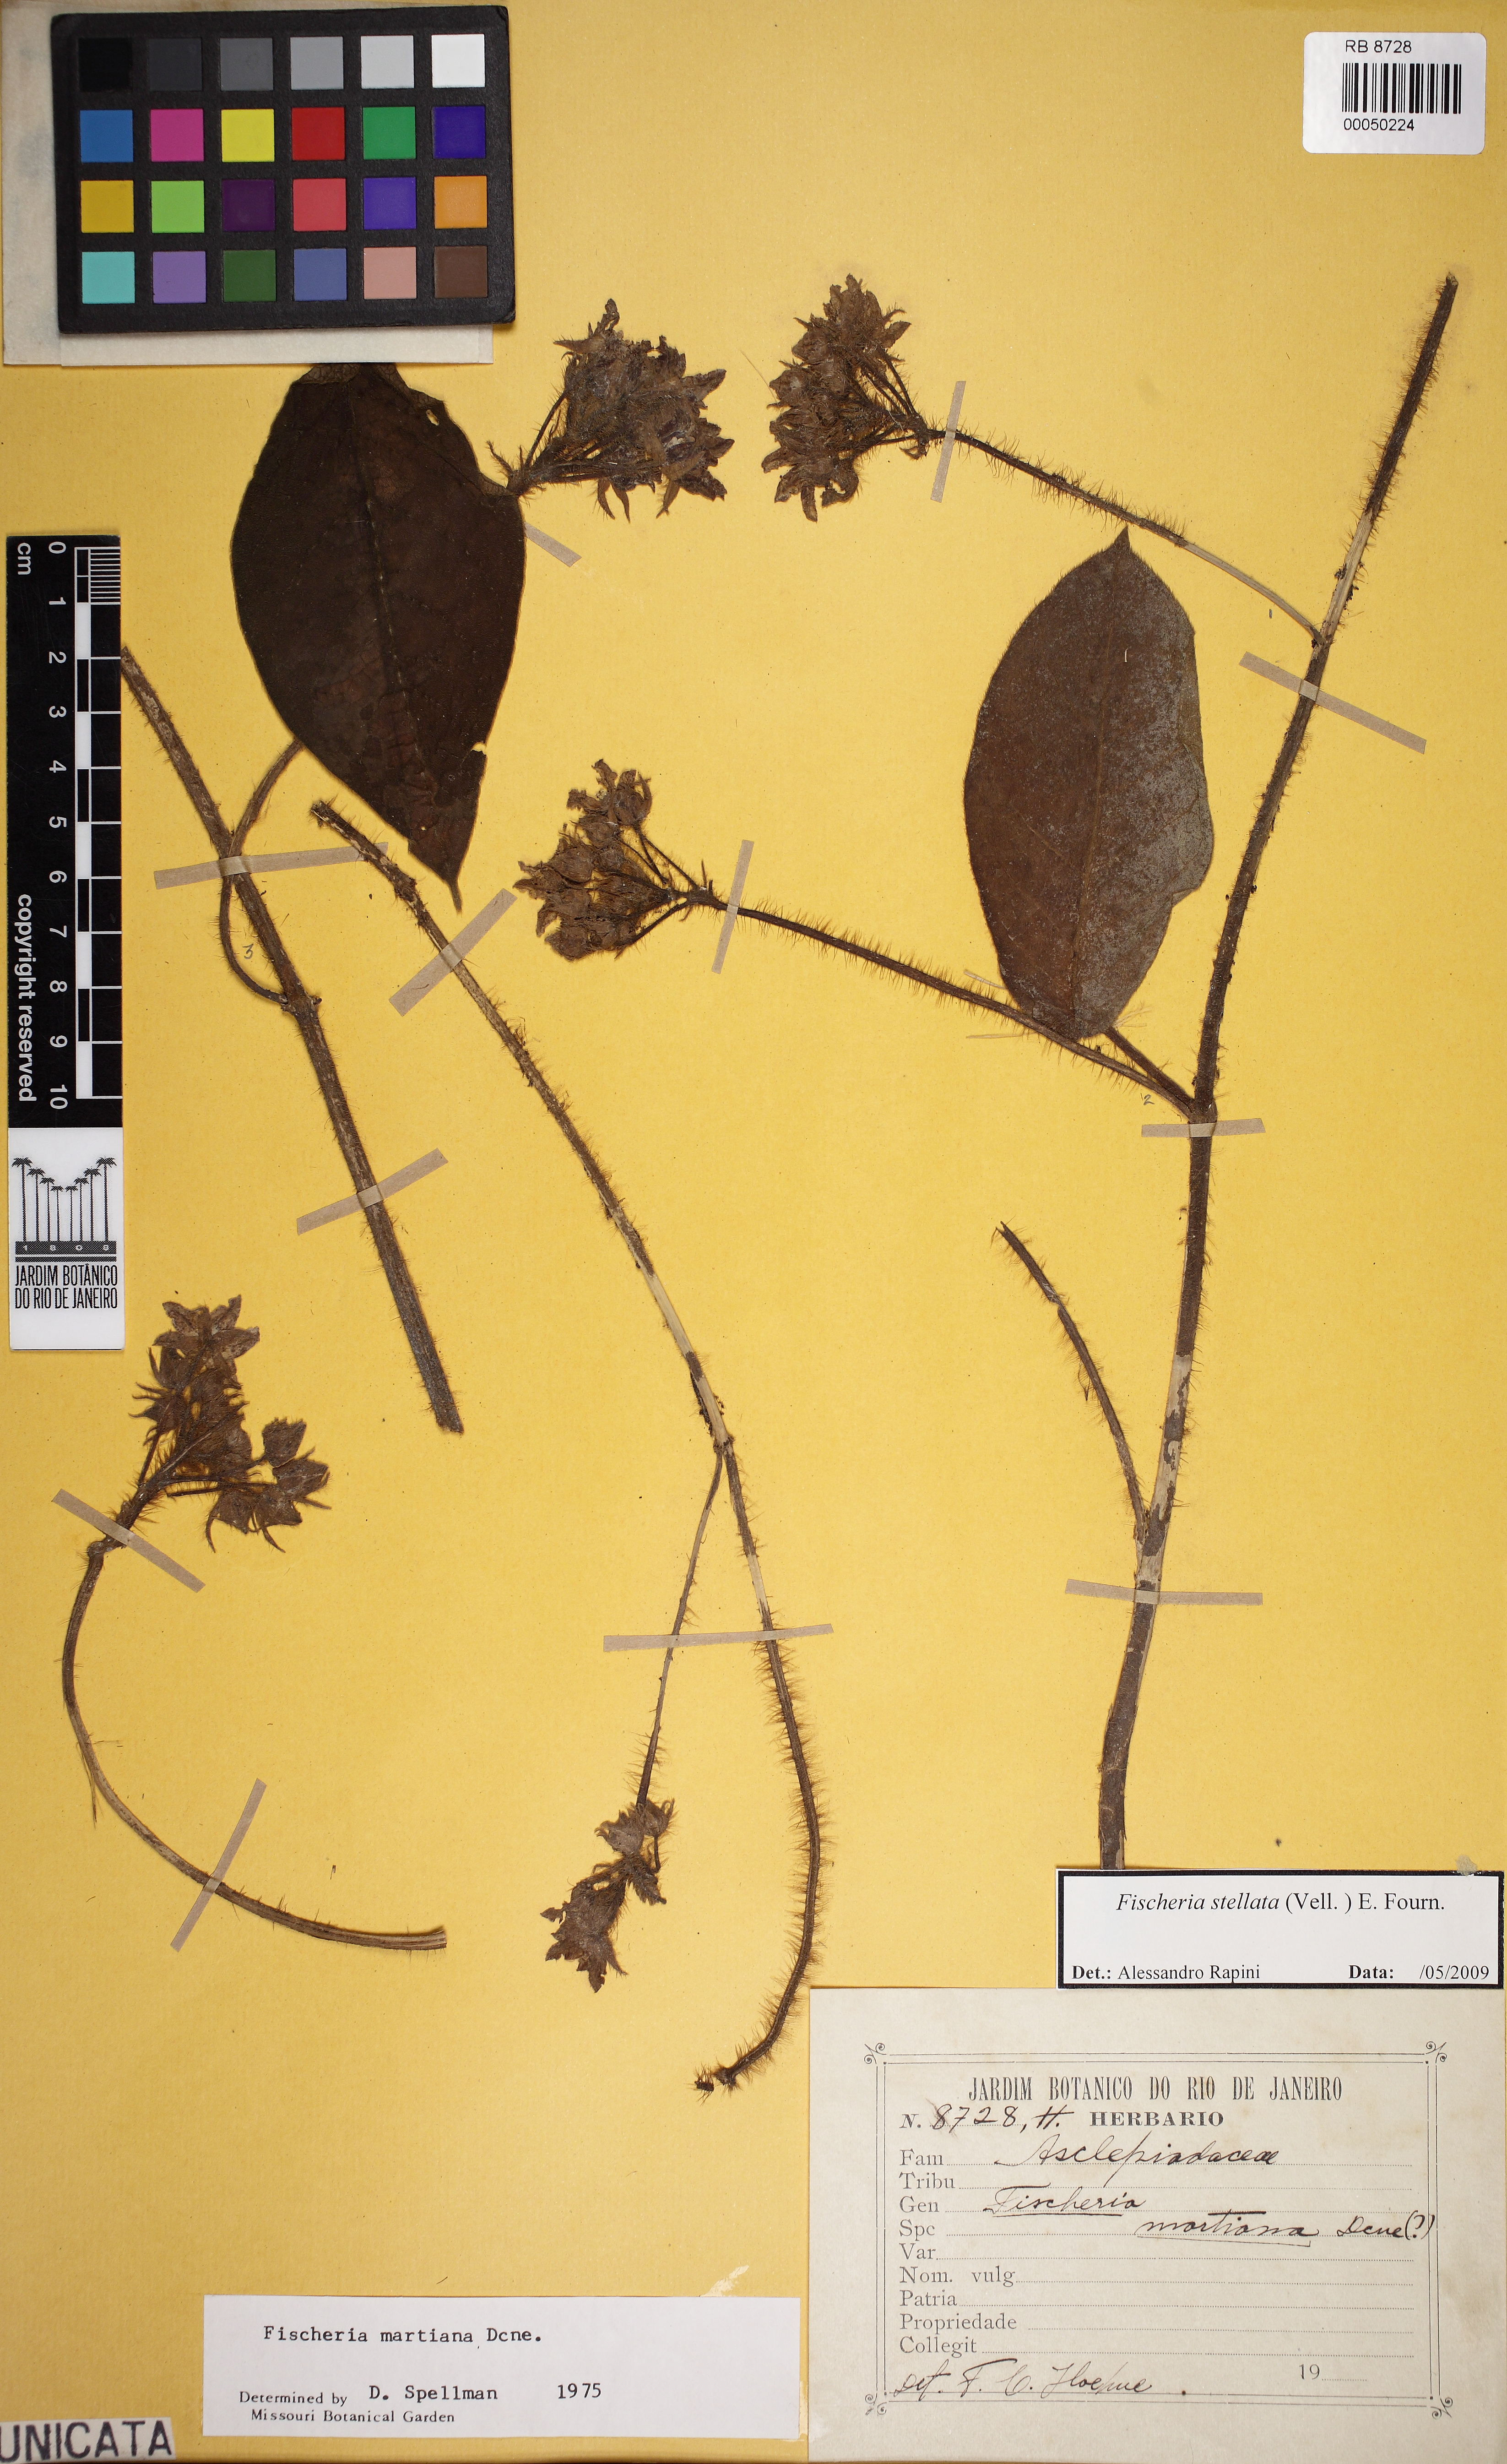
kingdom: Plantae
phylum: Tracheophyta
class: Magnoliopsida
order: Gentianales
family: Apocynaceae
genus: Fischeria
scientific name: Fischeria stellata
